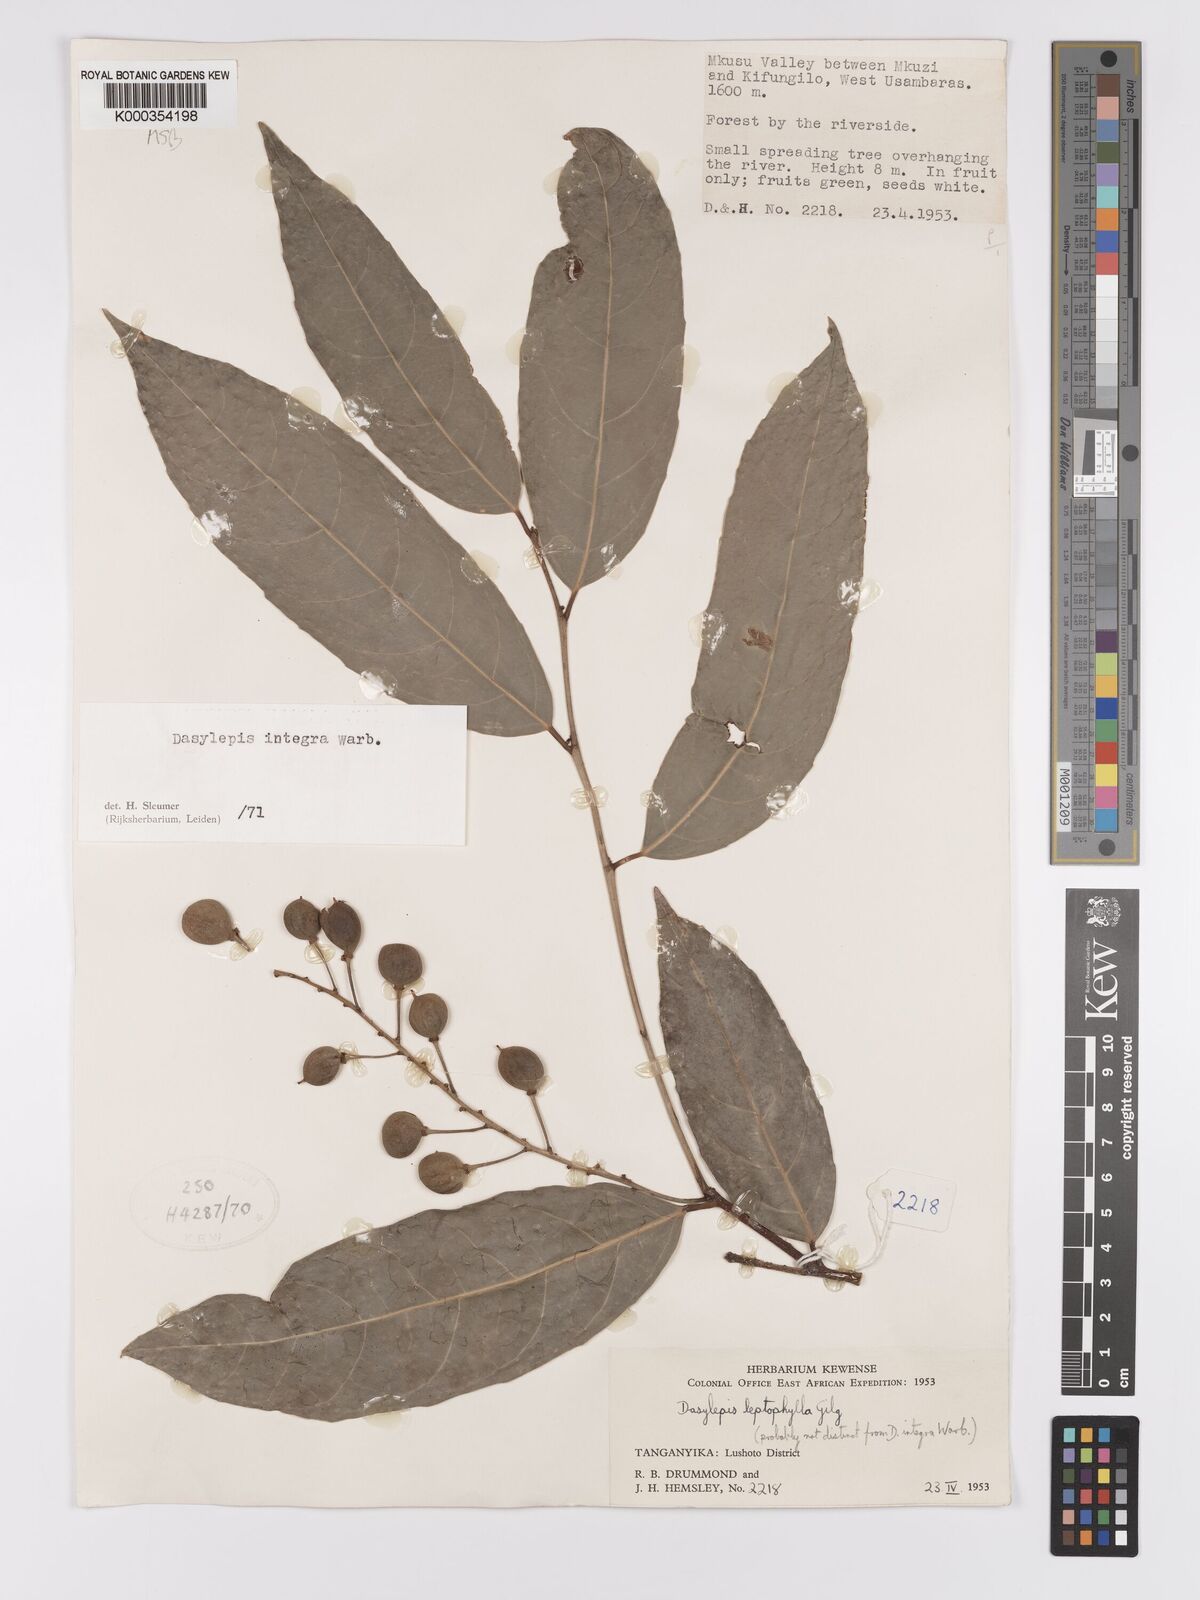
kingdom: Plantae
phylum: Tracheophyta
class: Magnoliopsida
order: Malpighiales
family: Achariaceae
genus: Dasylepis
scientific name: Dasylepis integra
